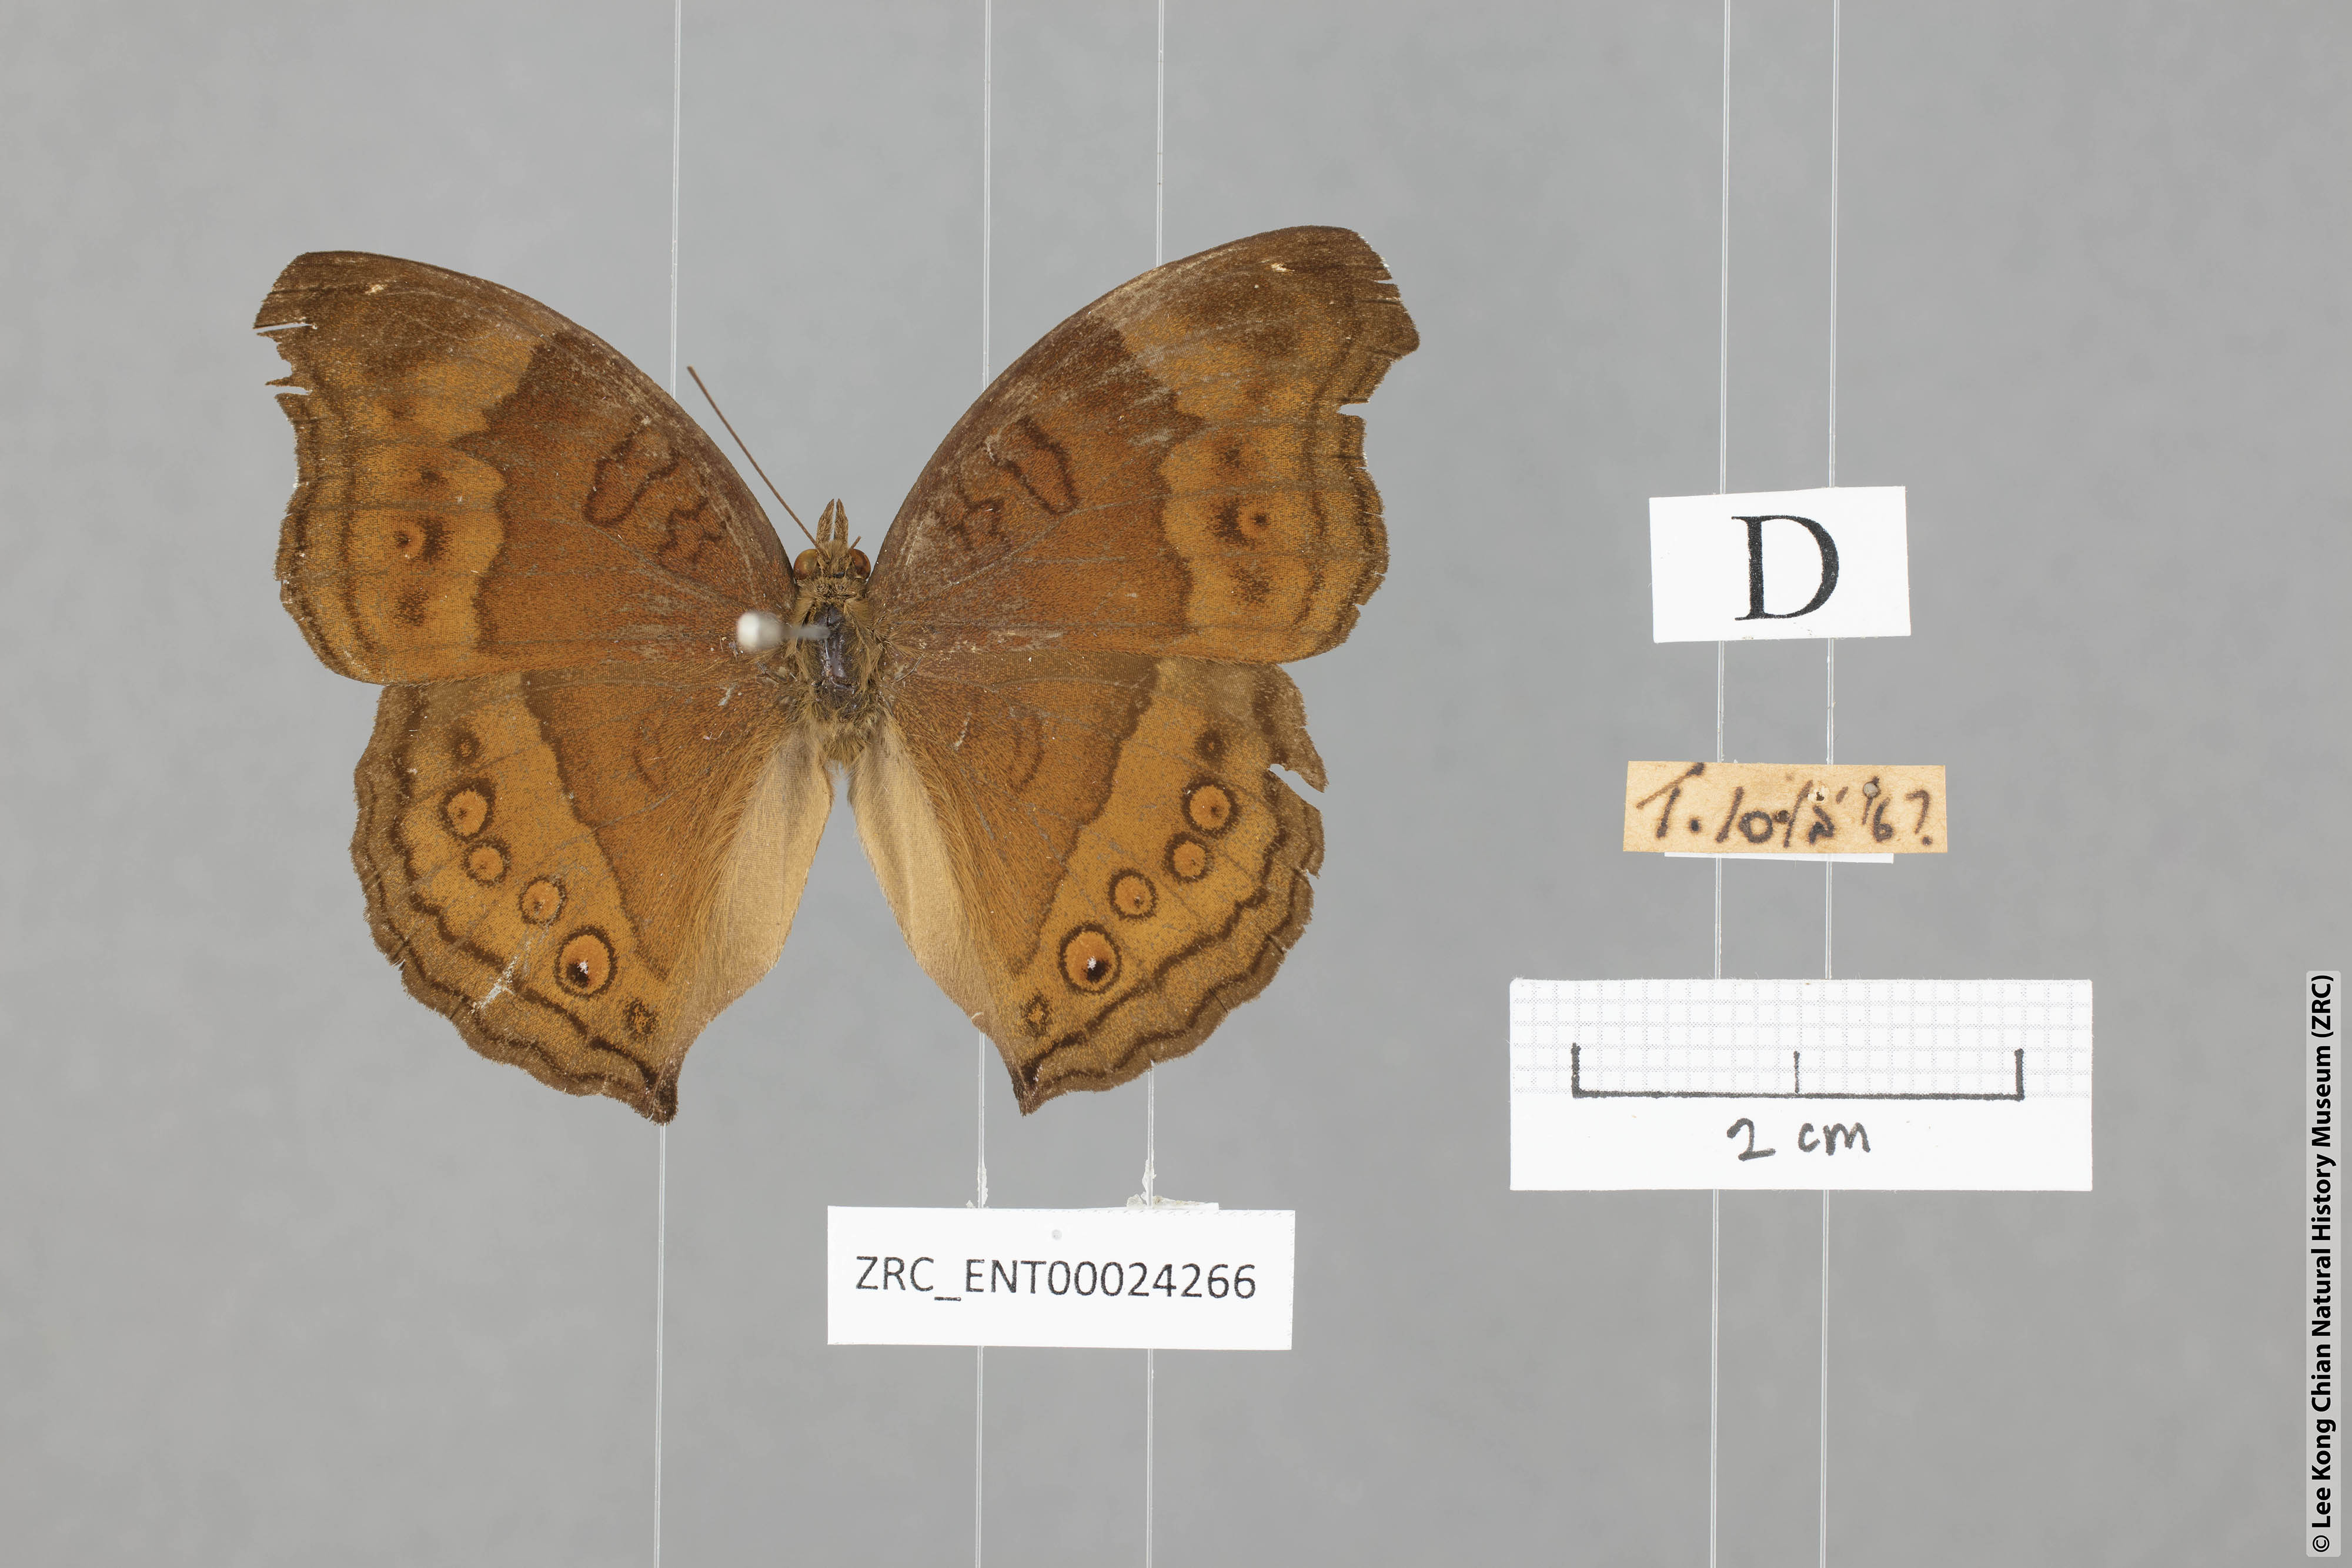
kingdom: Animalia
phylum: Arthropoda
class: Insecta
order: Lepidoptera
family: Nymphalidae
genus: Junonia
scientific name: Junonia hedonia
